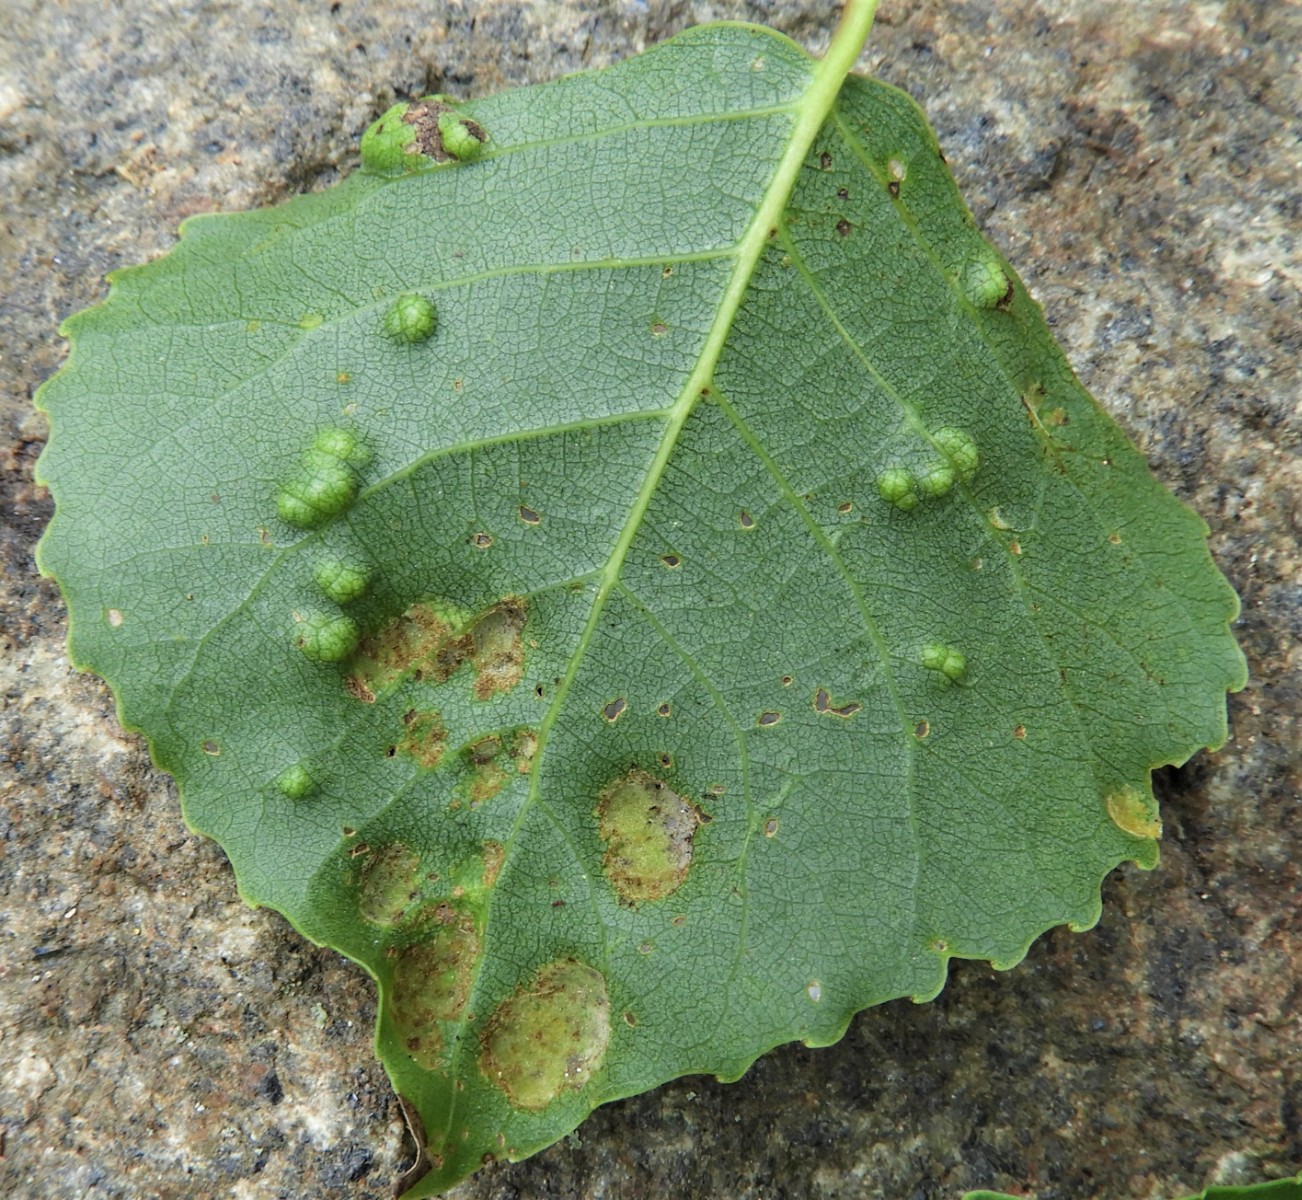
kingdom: Fungi
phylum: Ascomycota
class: Taphrinomycetes
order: Taphrinales
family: Taphrinaceae
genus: Taphrina
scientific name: Taphrina populina
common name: Poplar leaf curl
